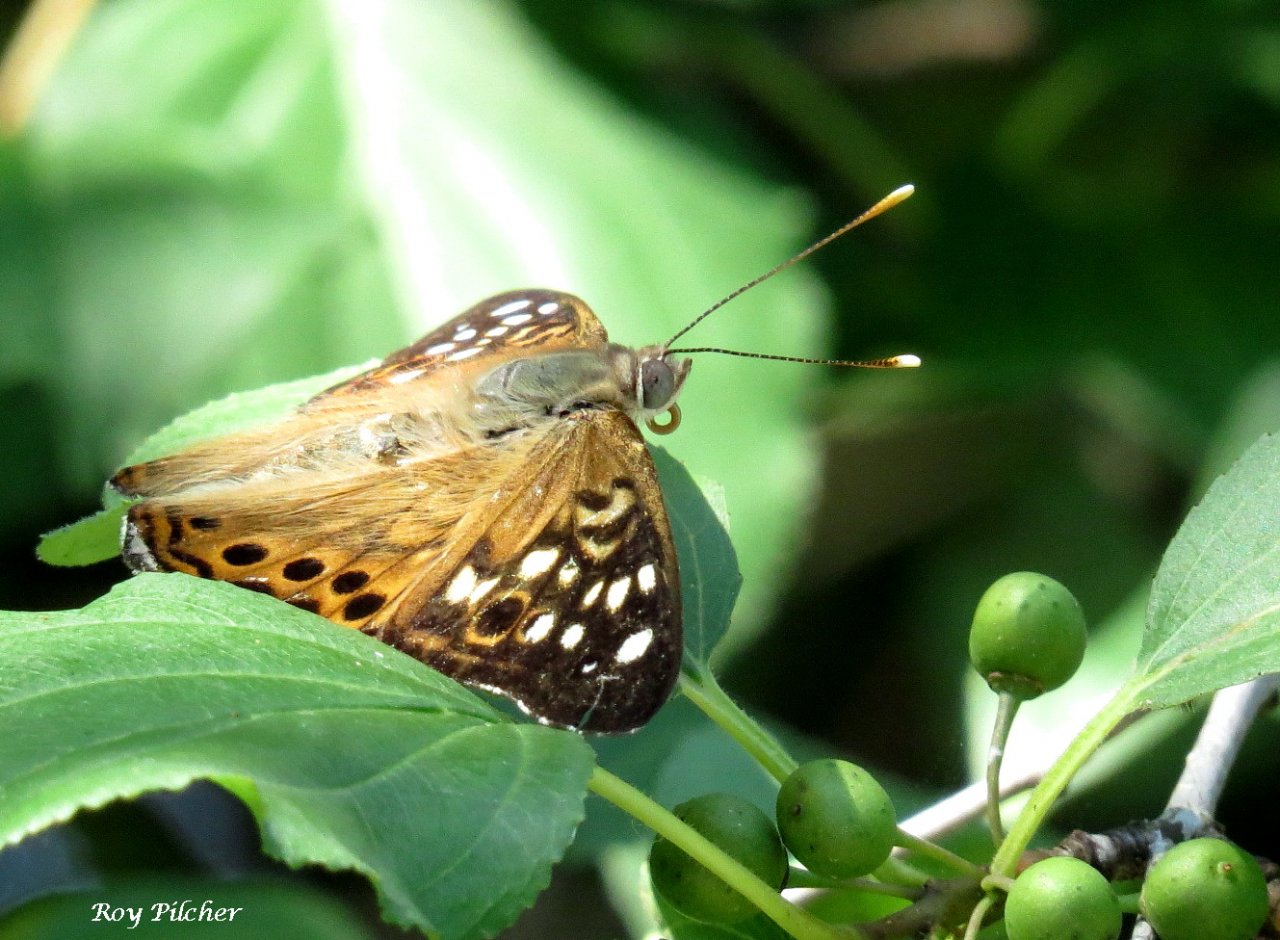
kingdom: Animalia
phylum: Arthropoda
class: Insecta
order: Lepidoptera
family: Nymphalidae
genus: Asterocampa
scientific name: Asterocampa celtis
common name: Hackberry Emperor
